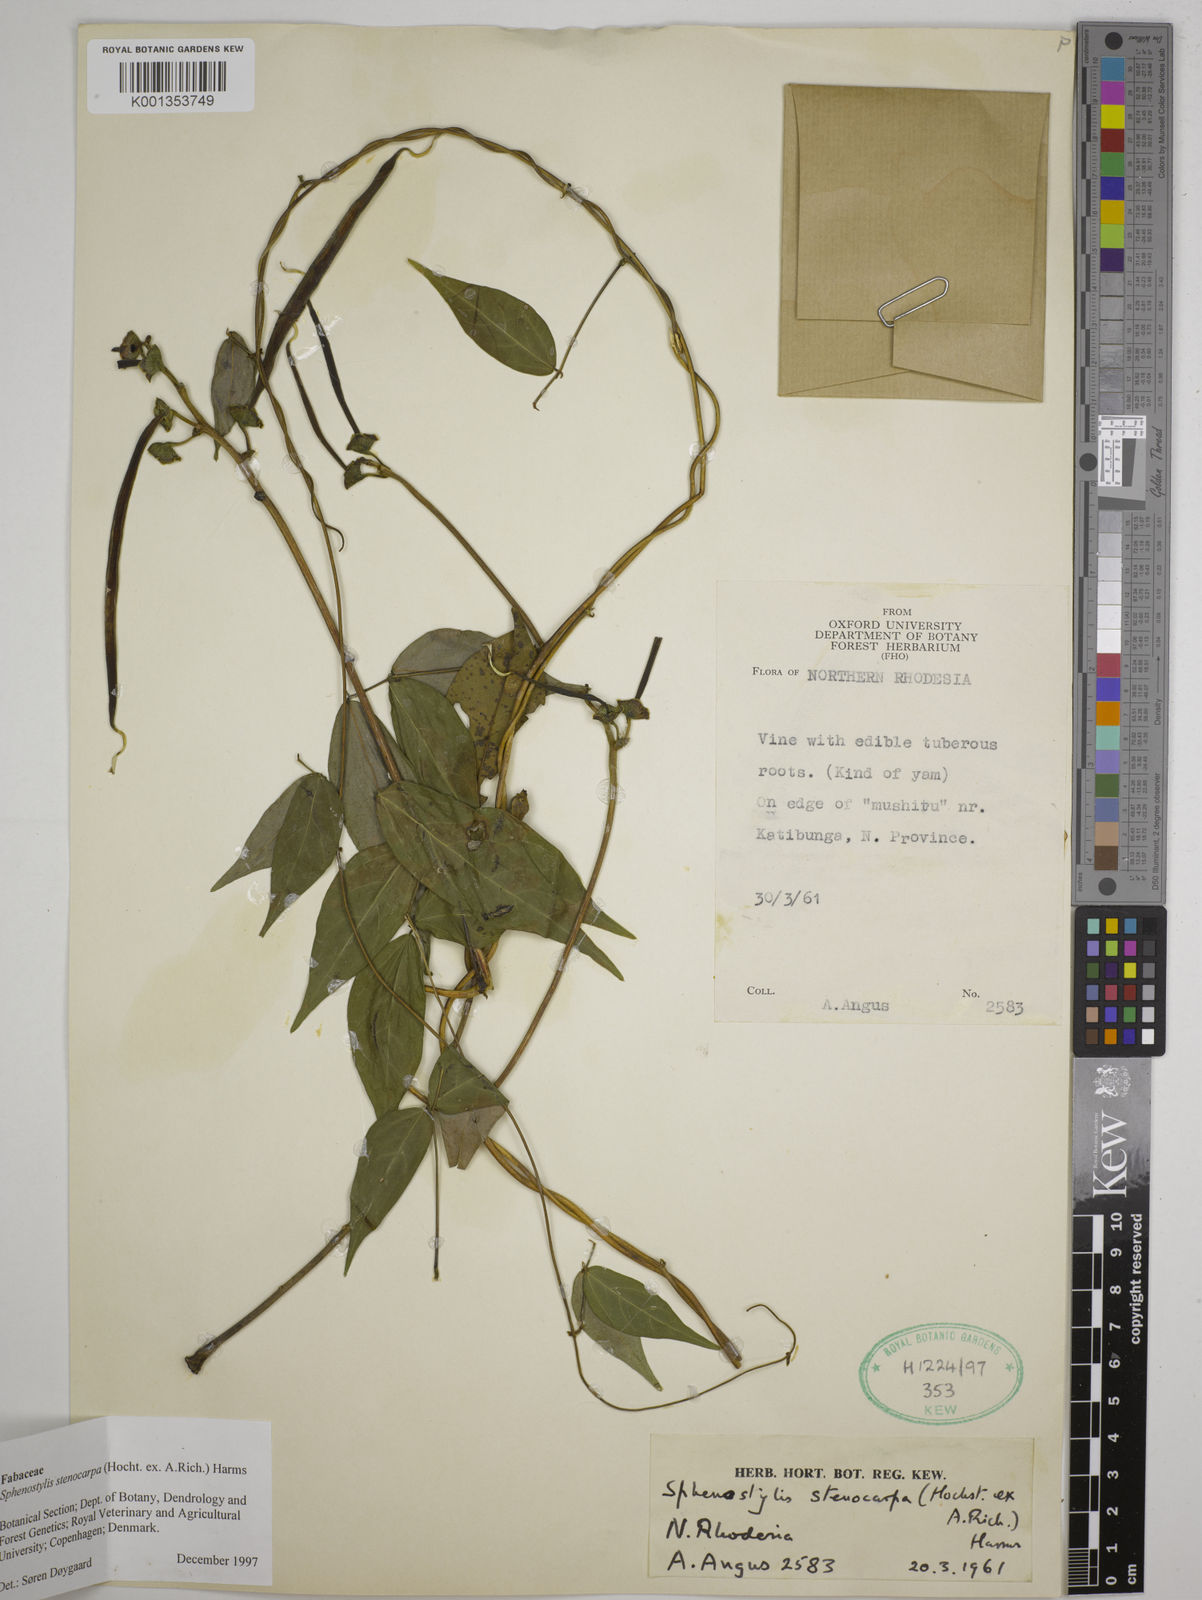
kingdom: Plantae
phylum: Tracheophyta
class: Magnoliopsida
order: Fabales
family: Fabaceae
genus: Sphenostylis
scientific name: Sphenostylis stenocarpa
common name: Yam-pea
